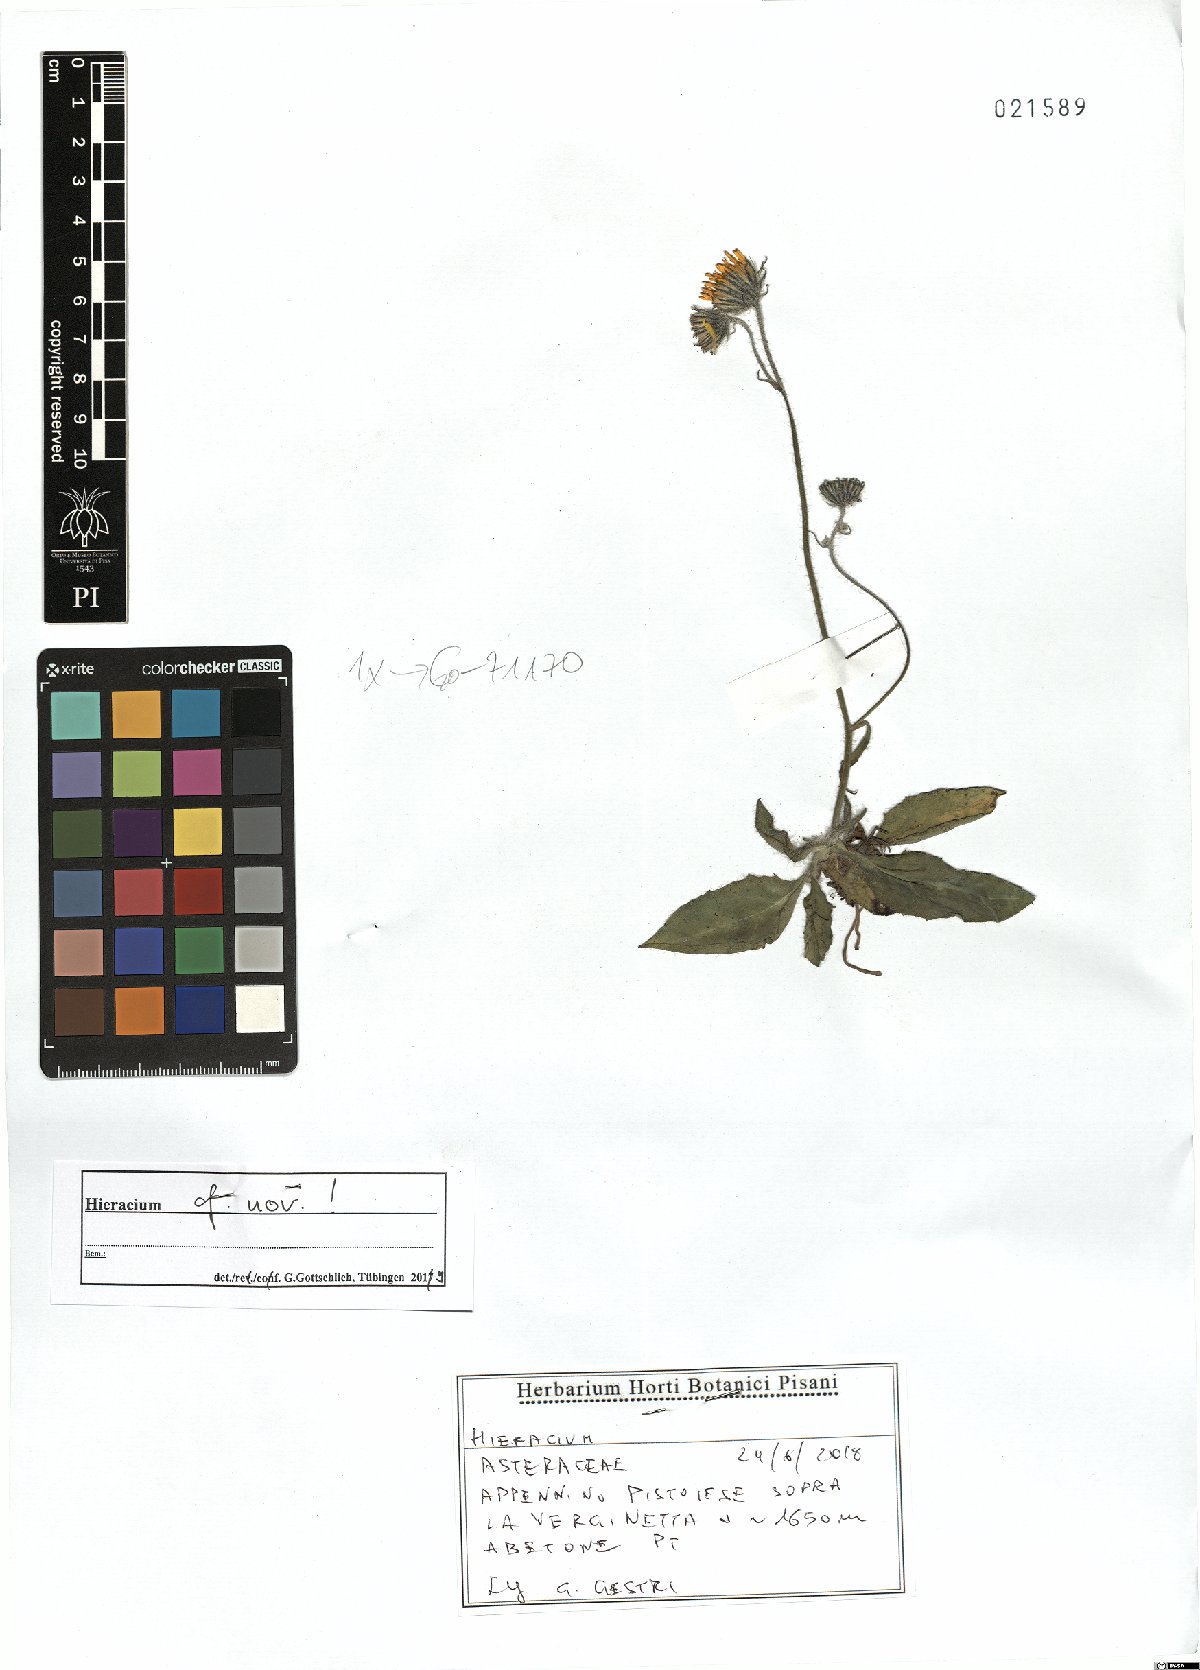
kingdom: Plantae
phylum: Tracheophyta
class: Magnoliopsida
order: Asterales
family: Asteraceae
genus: Hieracium
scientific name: Hieracium
